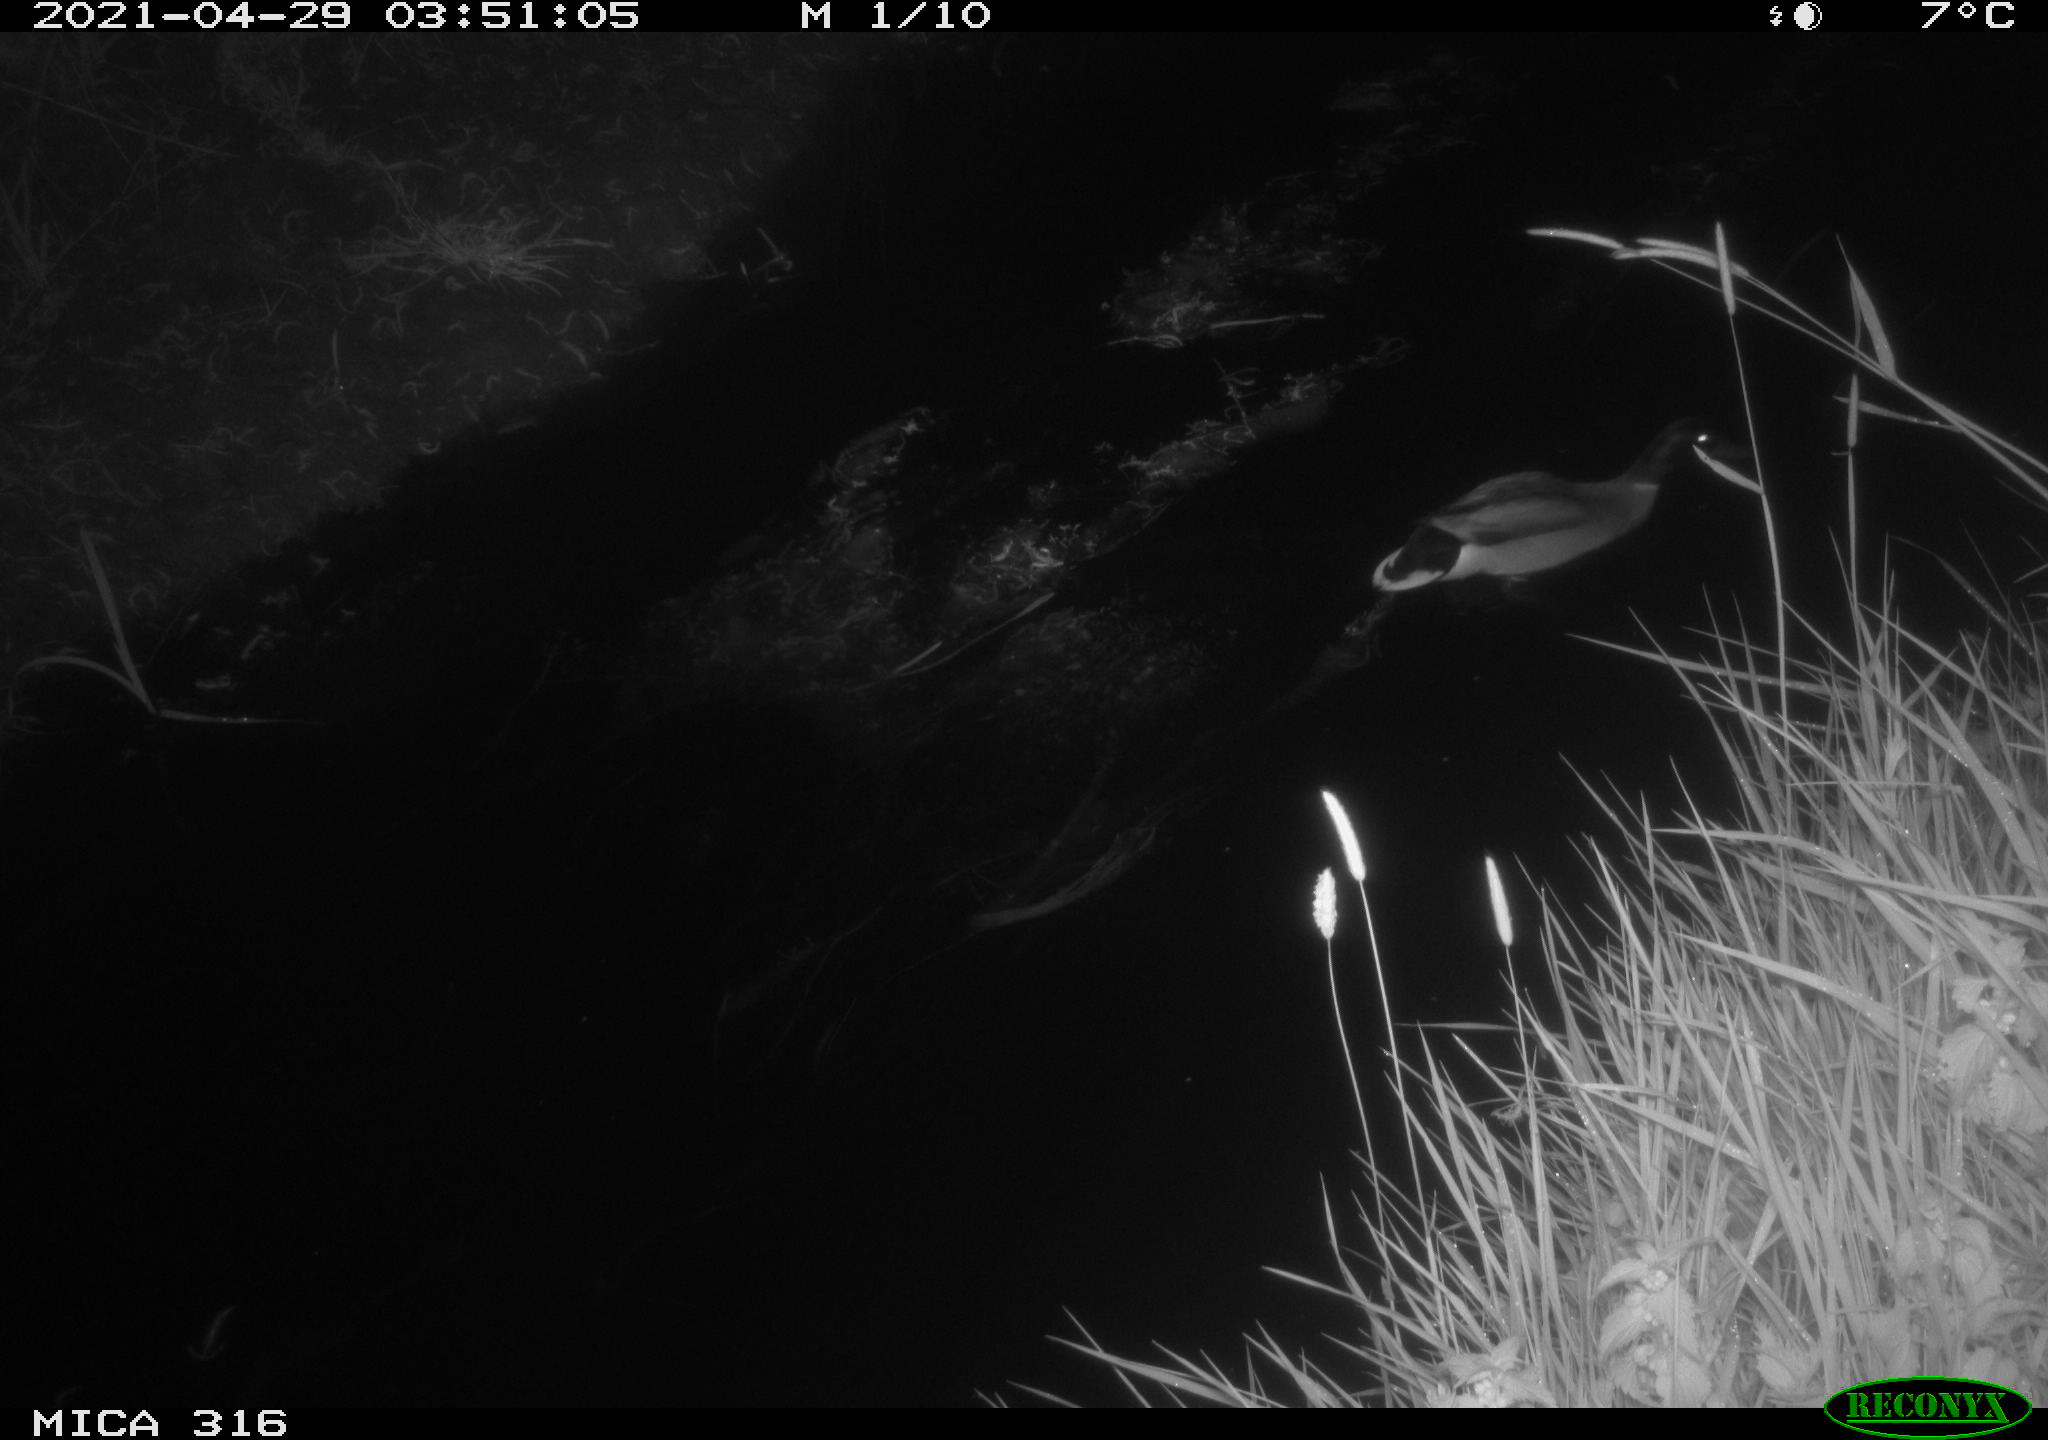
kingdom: Animalia
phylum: Chordata
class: Aves
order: Anseriformes
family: Anatidae
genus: Anas
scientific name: Anas platyrhynchos
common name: Mallard
